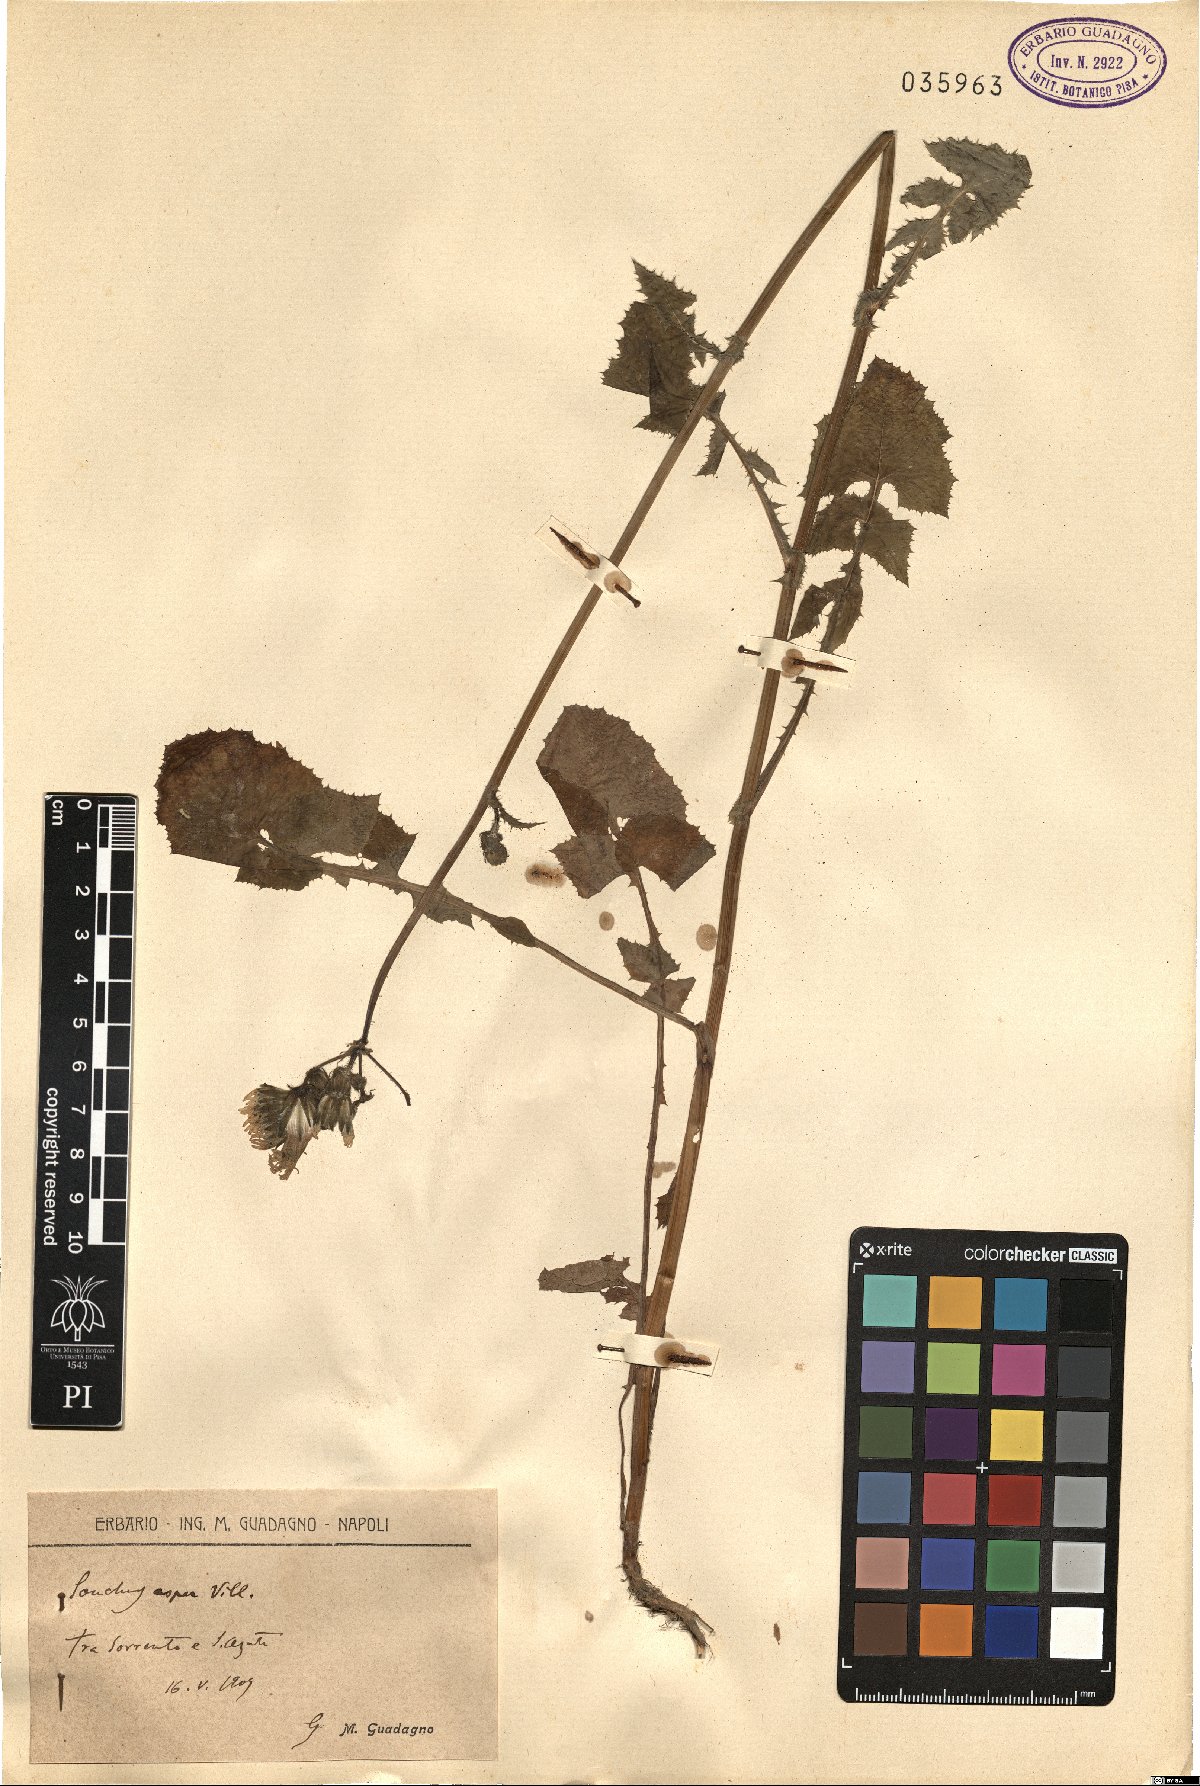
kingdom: Plantae
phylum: Tracheophyta
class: Magnoliopsida
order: Asterales
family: Asteraceae
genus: Sonchus
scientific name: Sonchus asper
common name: Prickly sow-thistle
